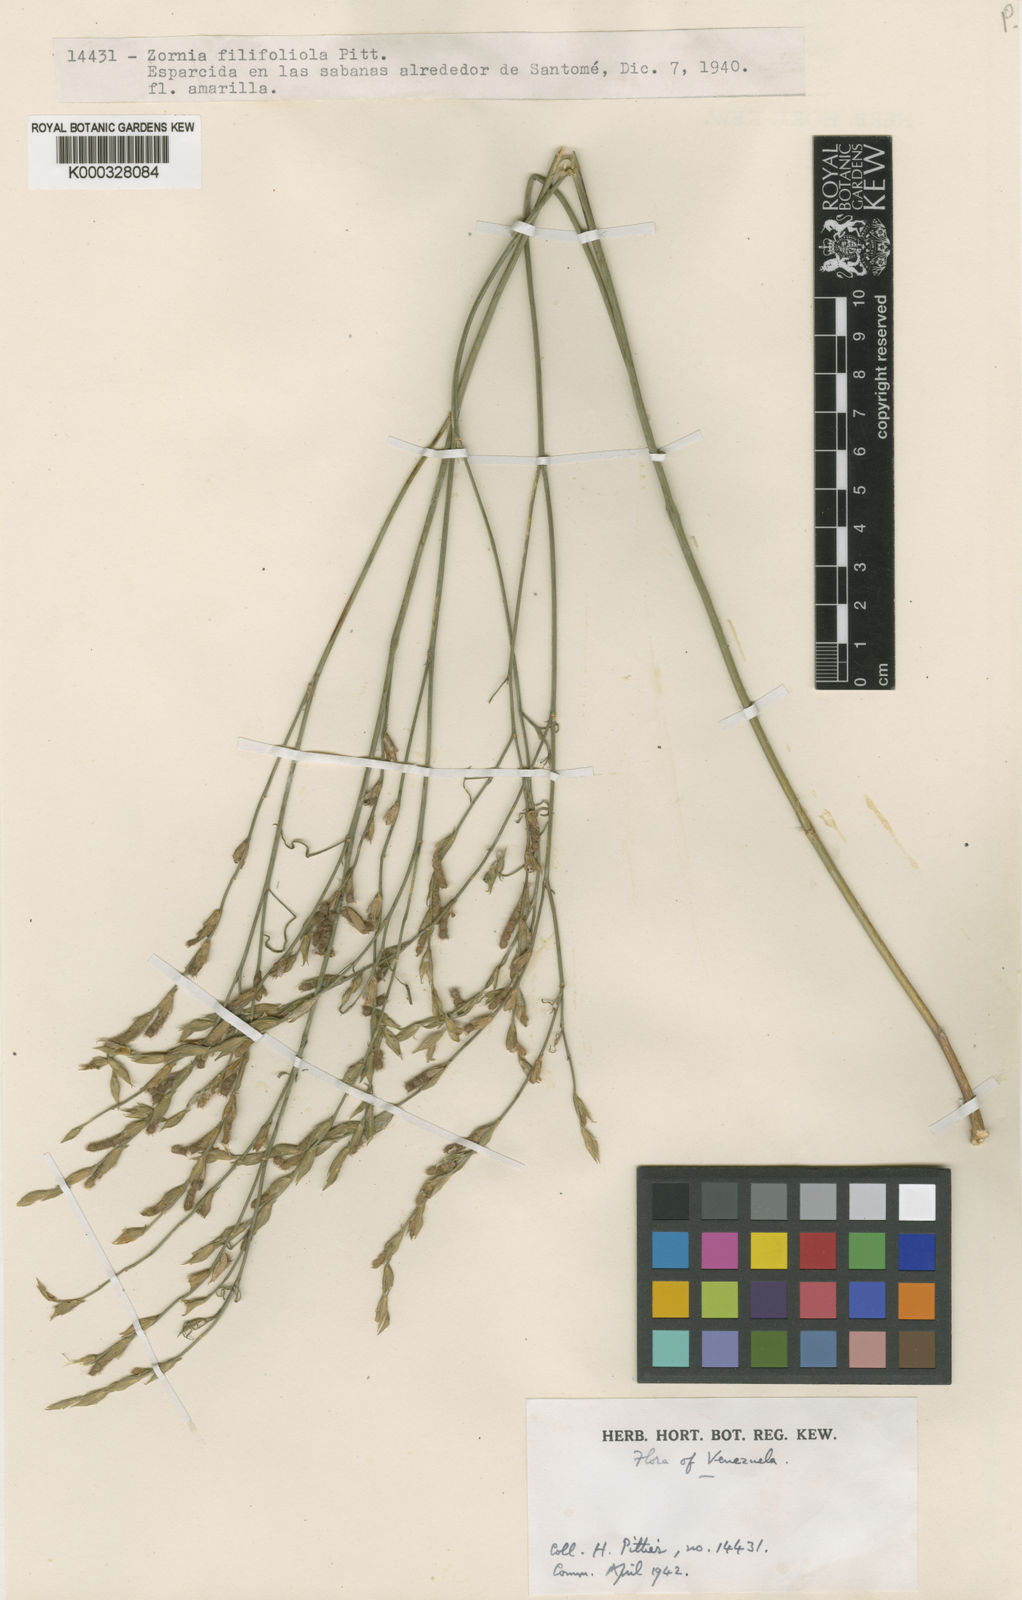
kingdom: Plantae
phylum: Tracheophyta
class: Magnoliopsida
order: Fabales
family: Fabaceae
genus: Zornia
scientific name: Zornia filifoliola
